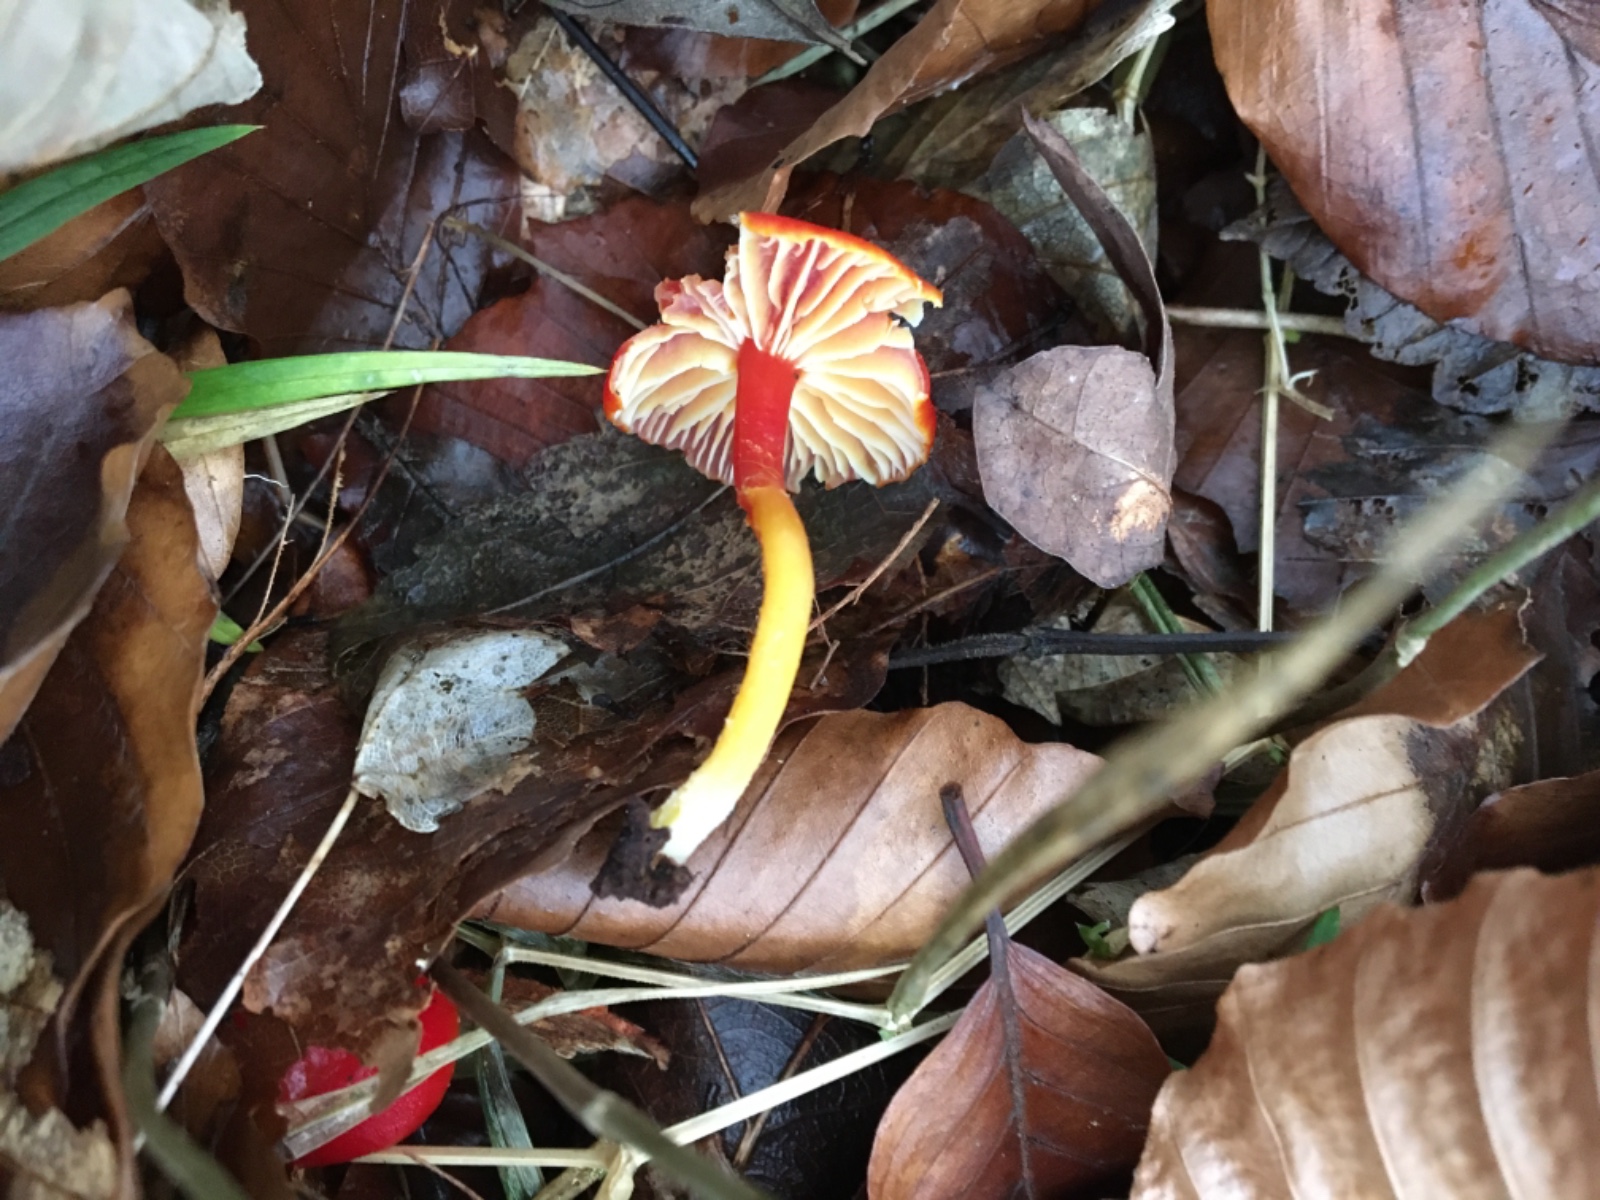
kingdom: Fungi
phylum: Basidiomycota
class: Agaricomycetes
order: Agaricales
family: Hygrophoraceae
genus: Hygrocybe
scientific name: Hygrocybe coccinea
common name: cinnober-vokshat
